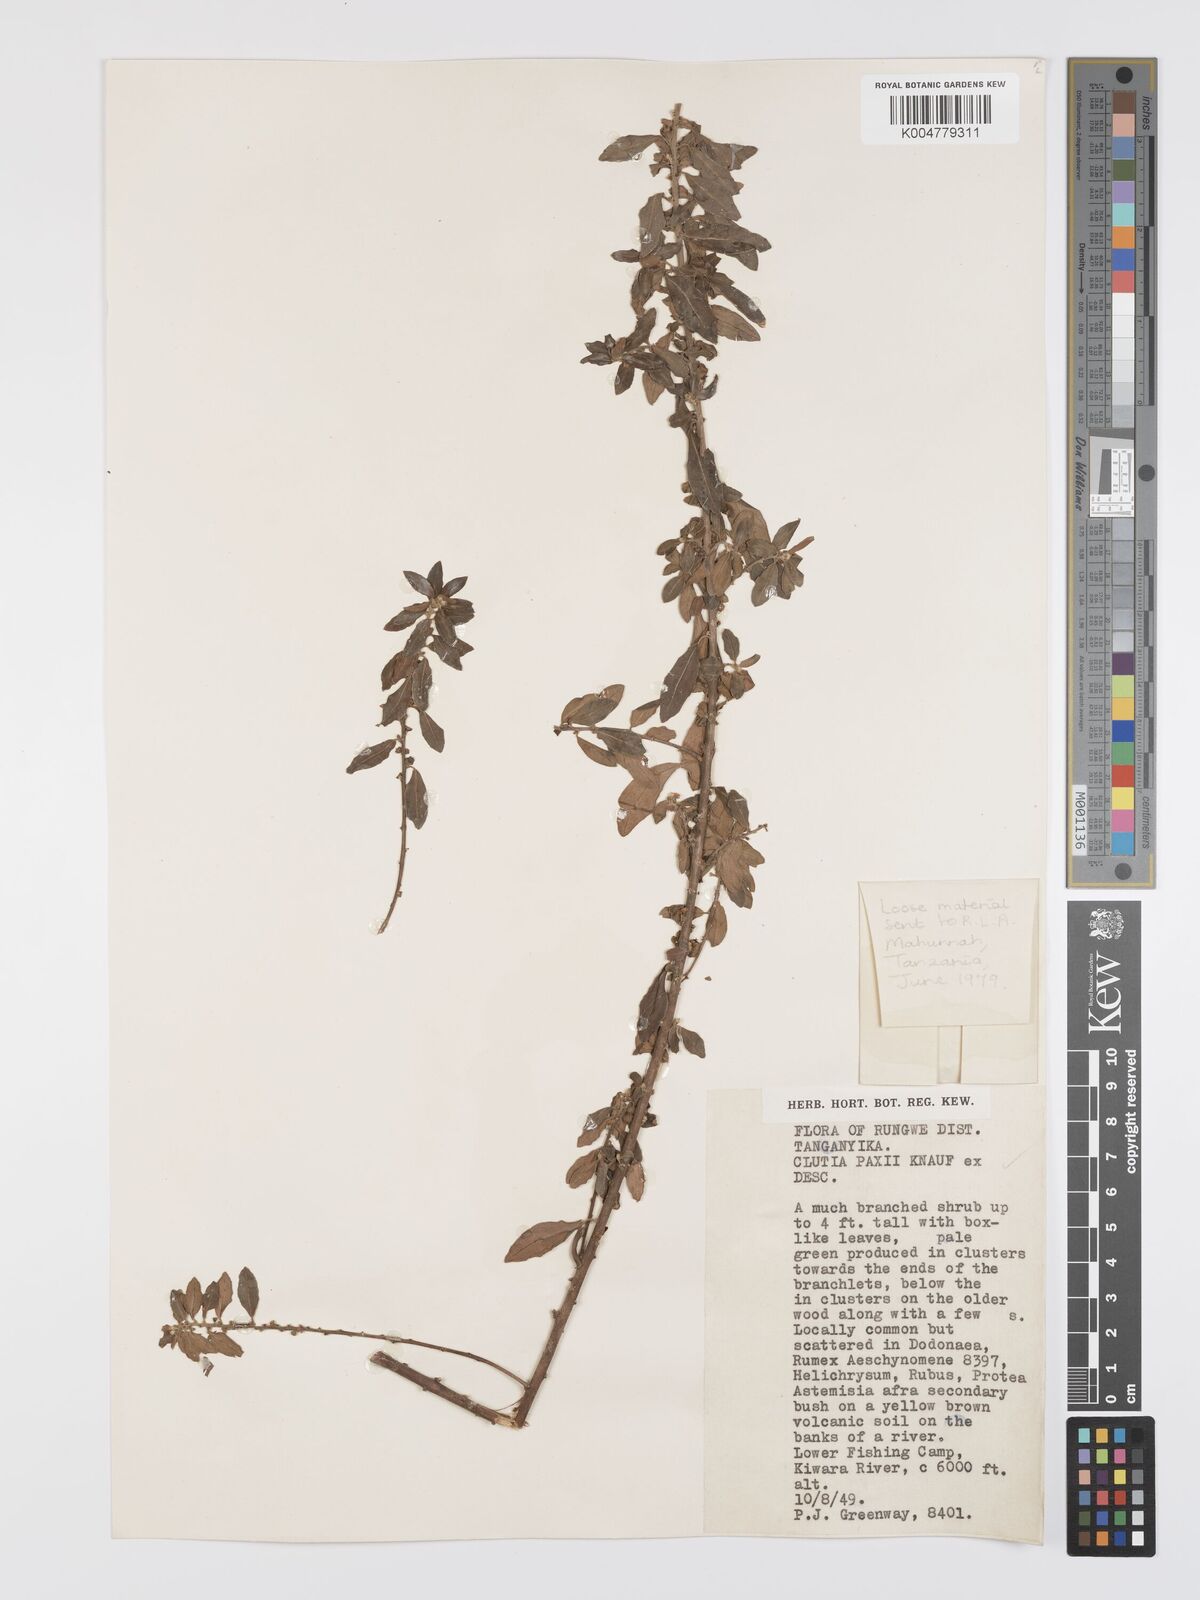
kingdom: Plantae
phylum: Tracheophyta
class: Magnoliopsida
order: Malpighiales
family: Peraceae
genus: Clutia
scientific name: Clutia paxii
